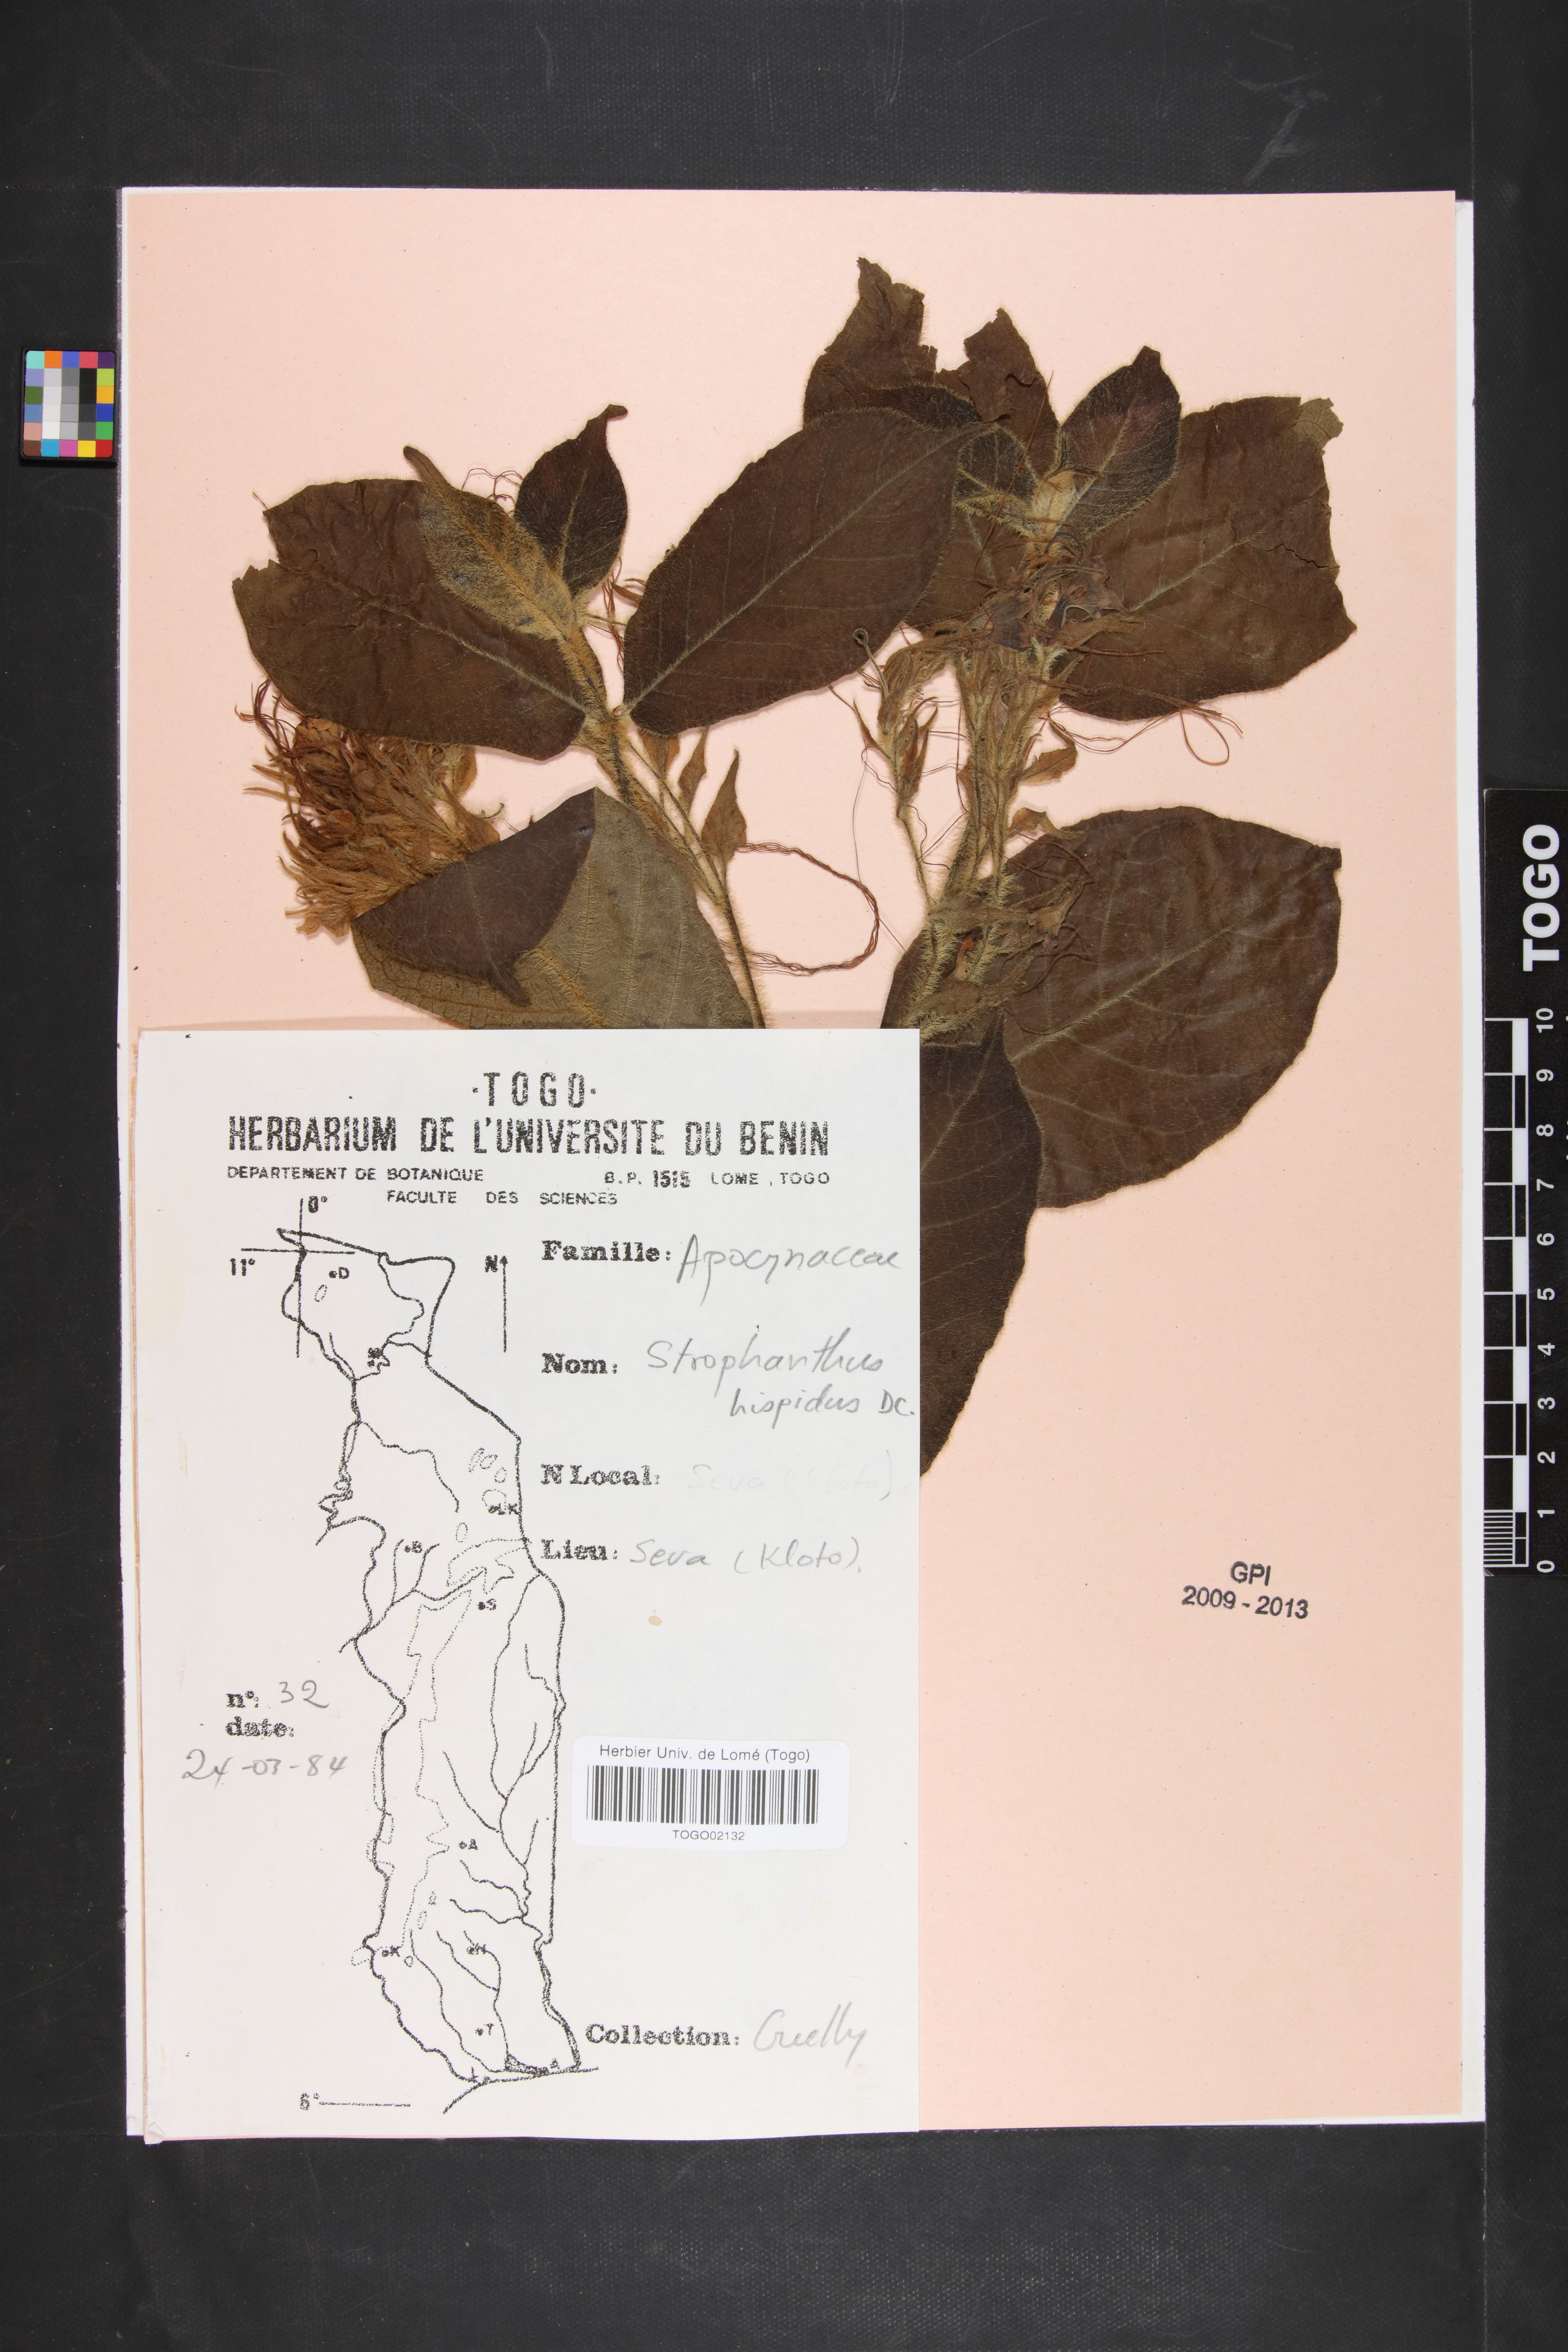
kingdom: Plantae
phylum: Tracheophyta
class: Magnoliopsida
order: Gentianales
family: Apocynaceae
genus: Strophanthus
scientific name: Strophanthus hispidus
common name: Hairy strophanthus
